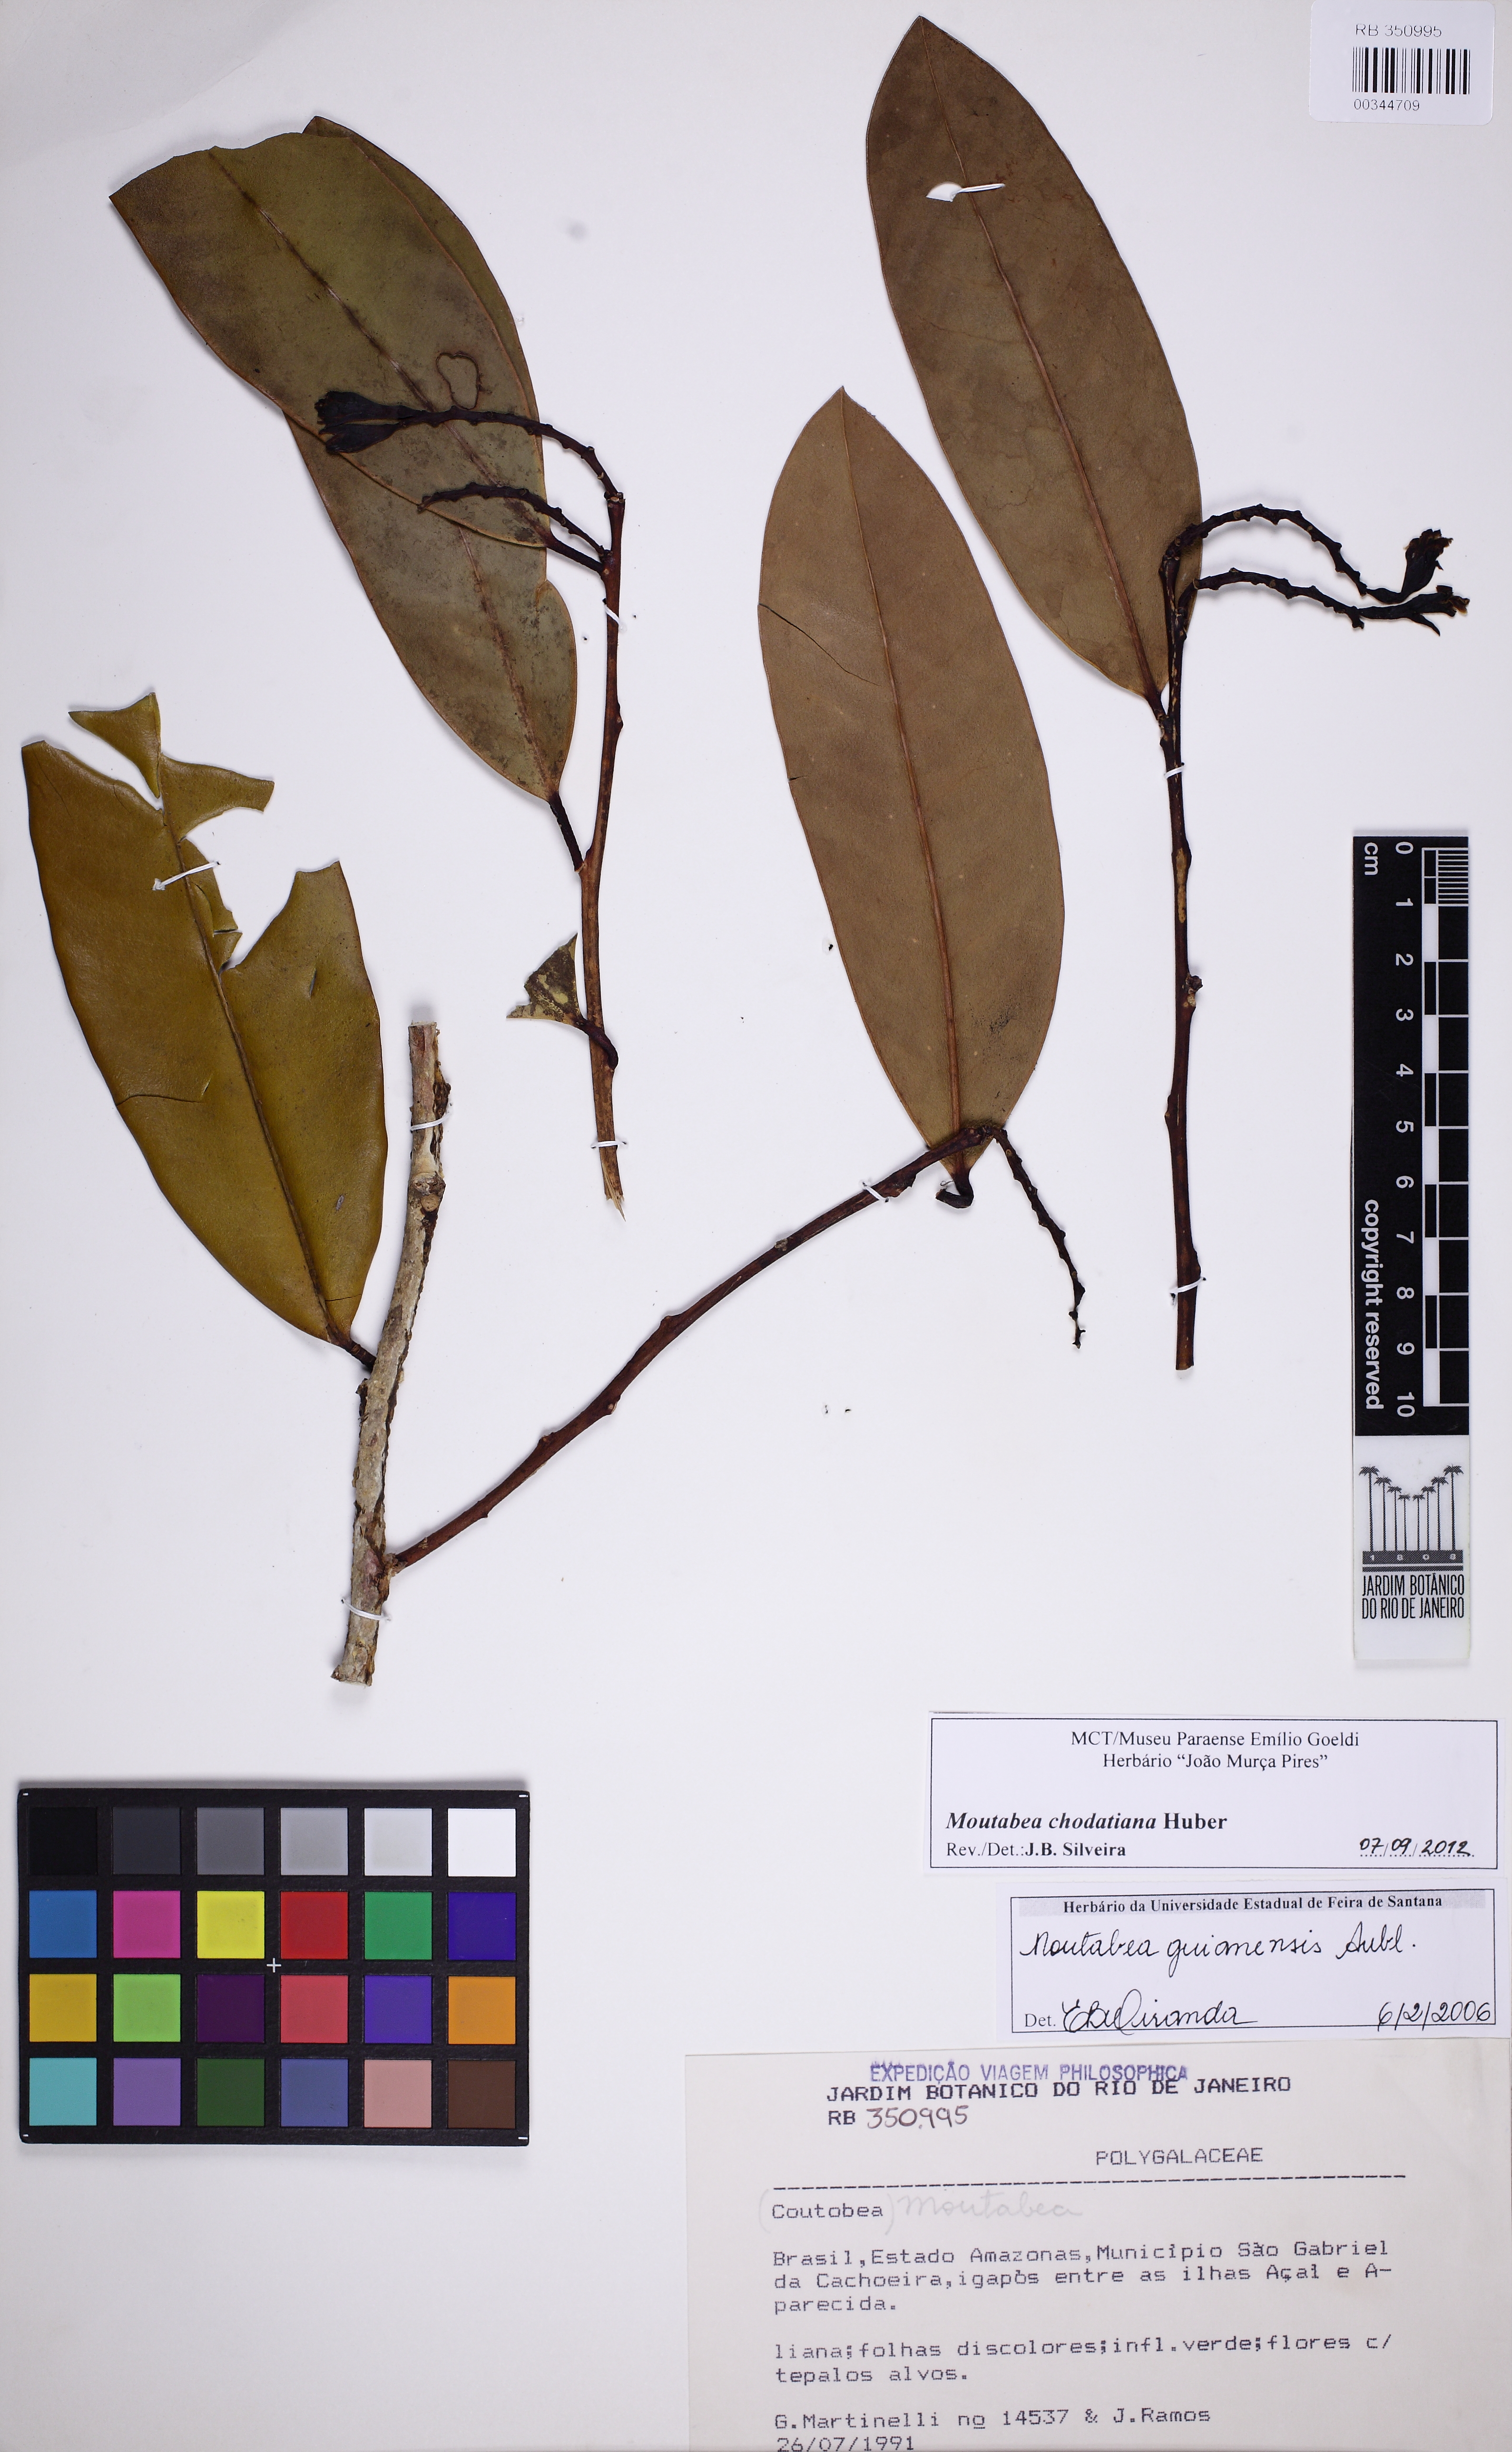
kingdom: Plantae
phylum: Tracheophyta
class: Magnoliopsida
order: Fabales
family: Polygalaceae
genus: Moutabea
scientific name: Moutabea chodatiana
